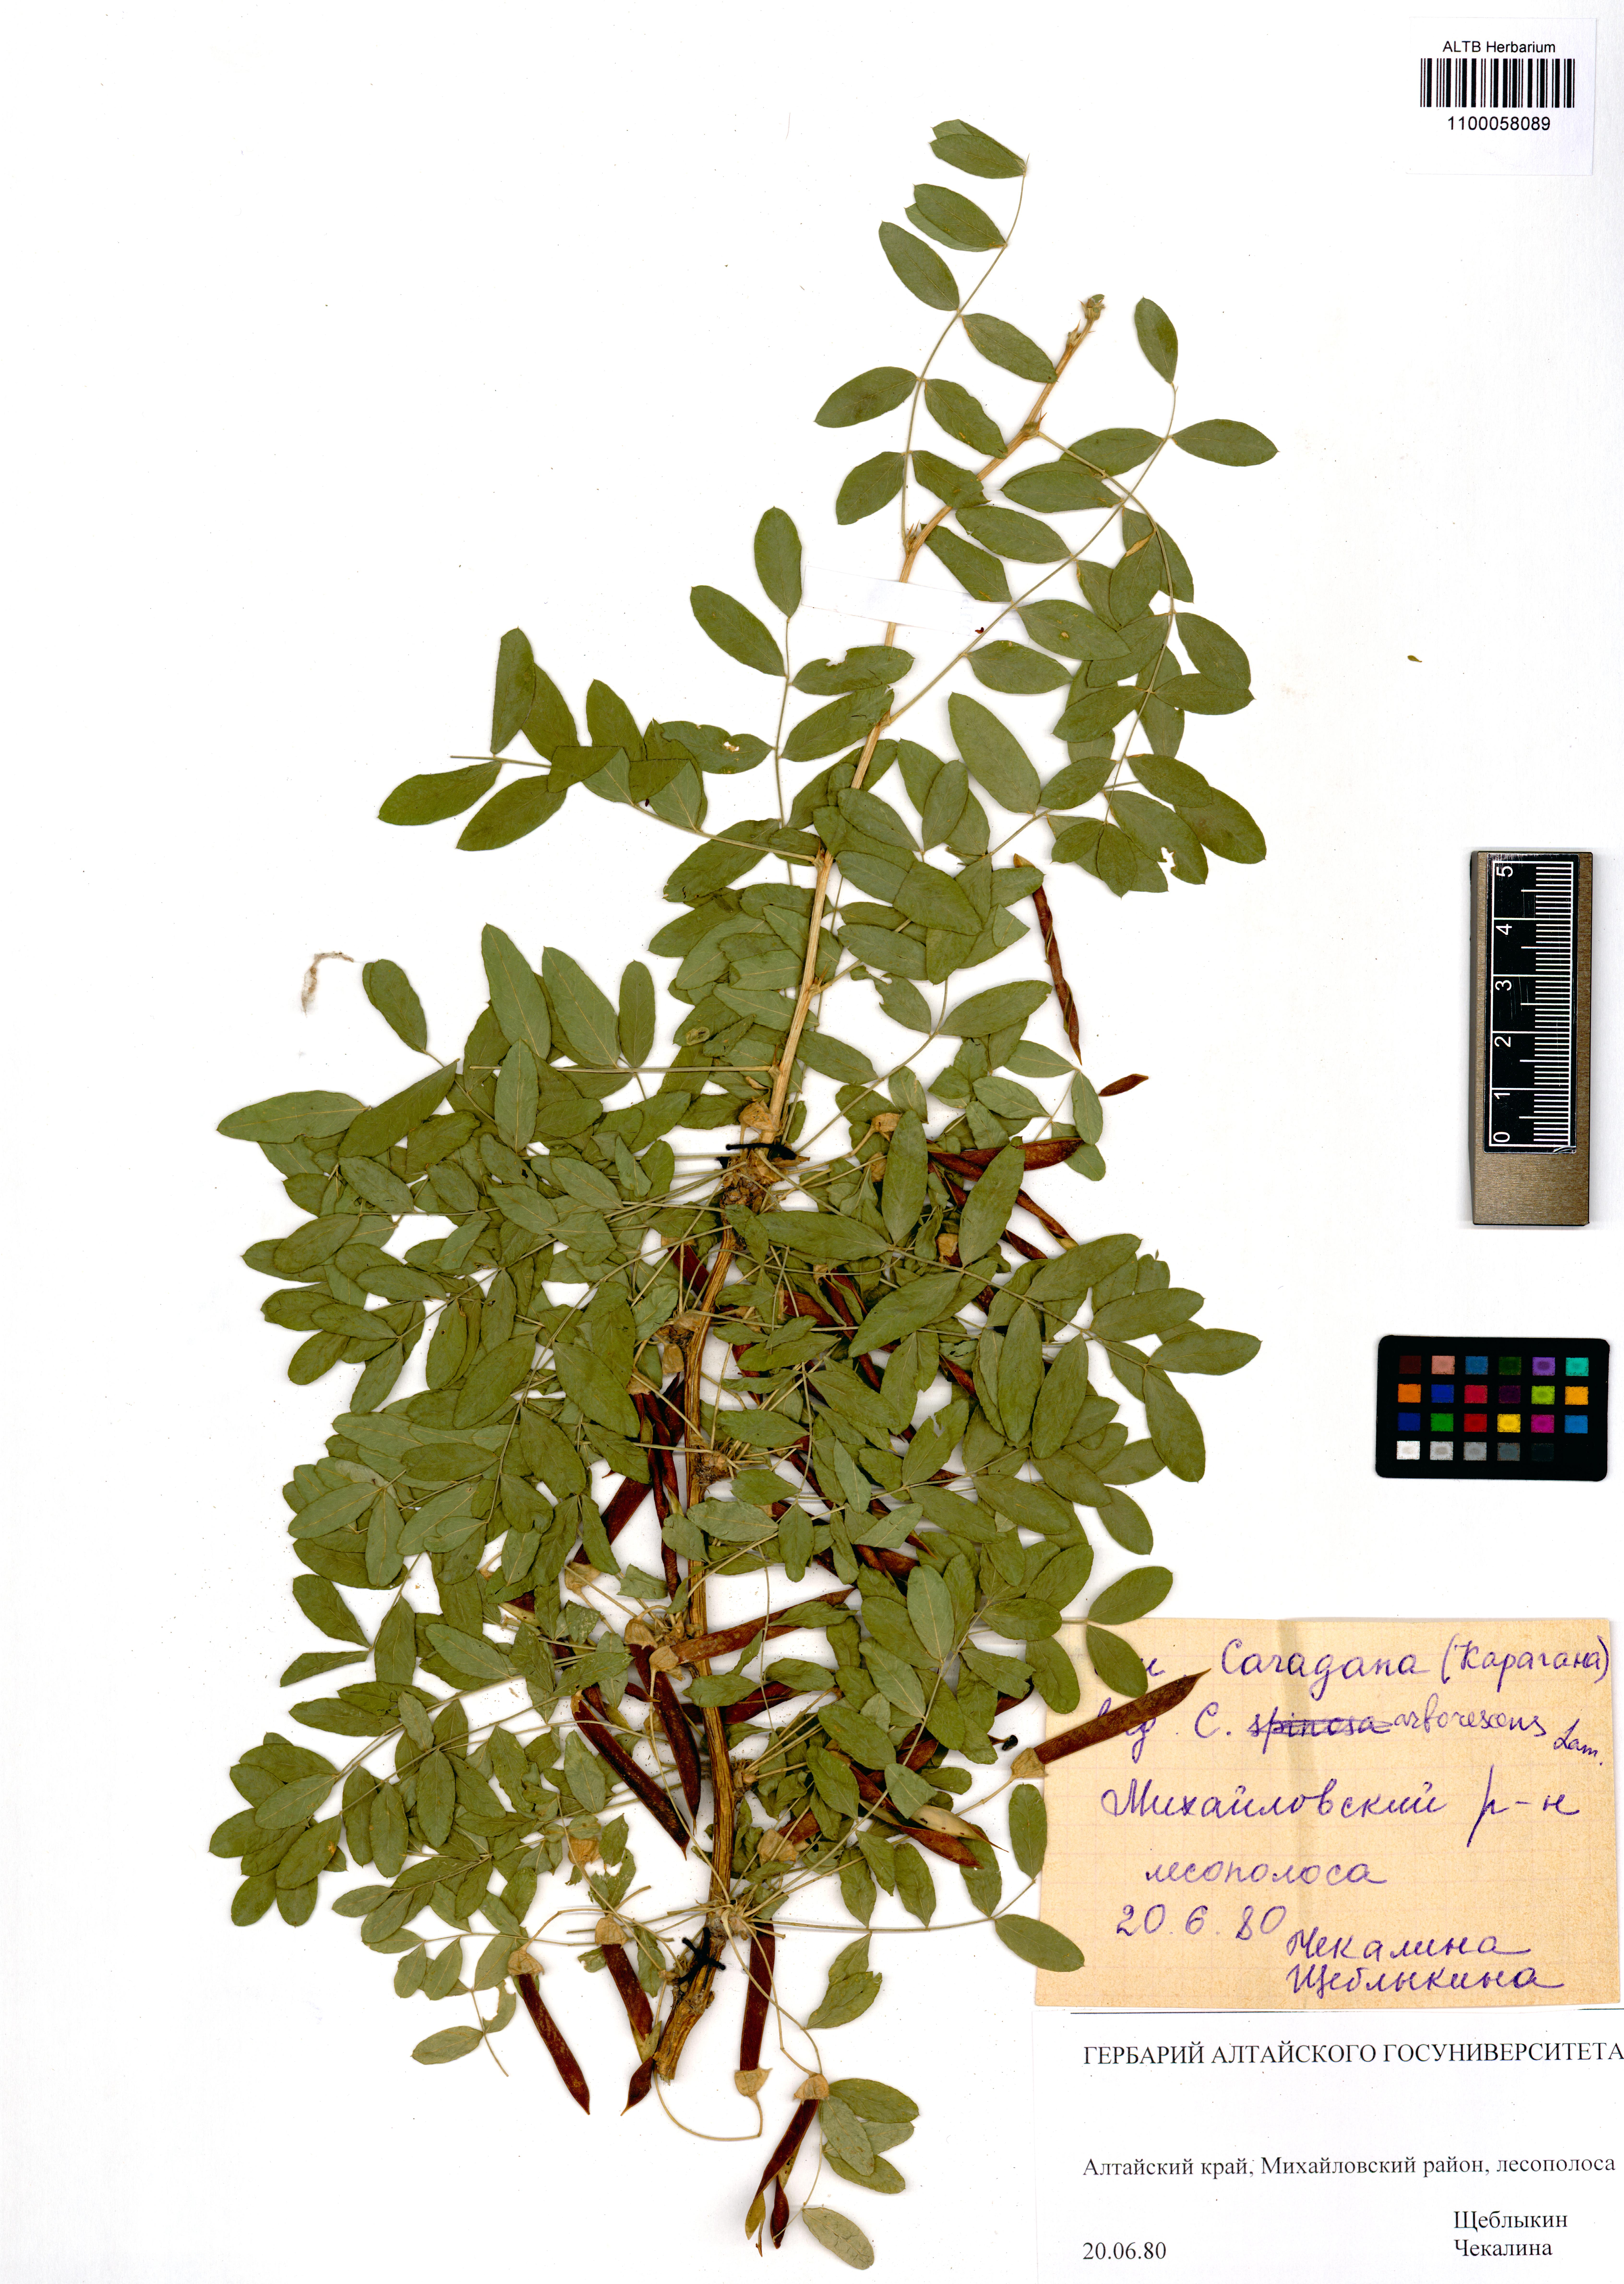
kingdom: Plantae
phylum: Tracheophyta
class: Magnoliopsida
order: Fabales
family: Fabaceae
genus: Caragana
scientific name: Caragana arborescens
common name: Siberian peashrub
